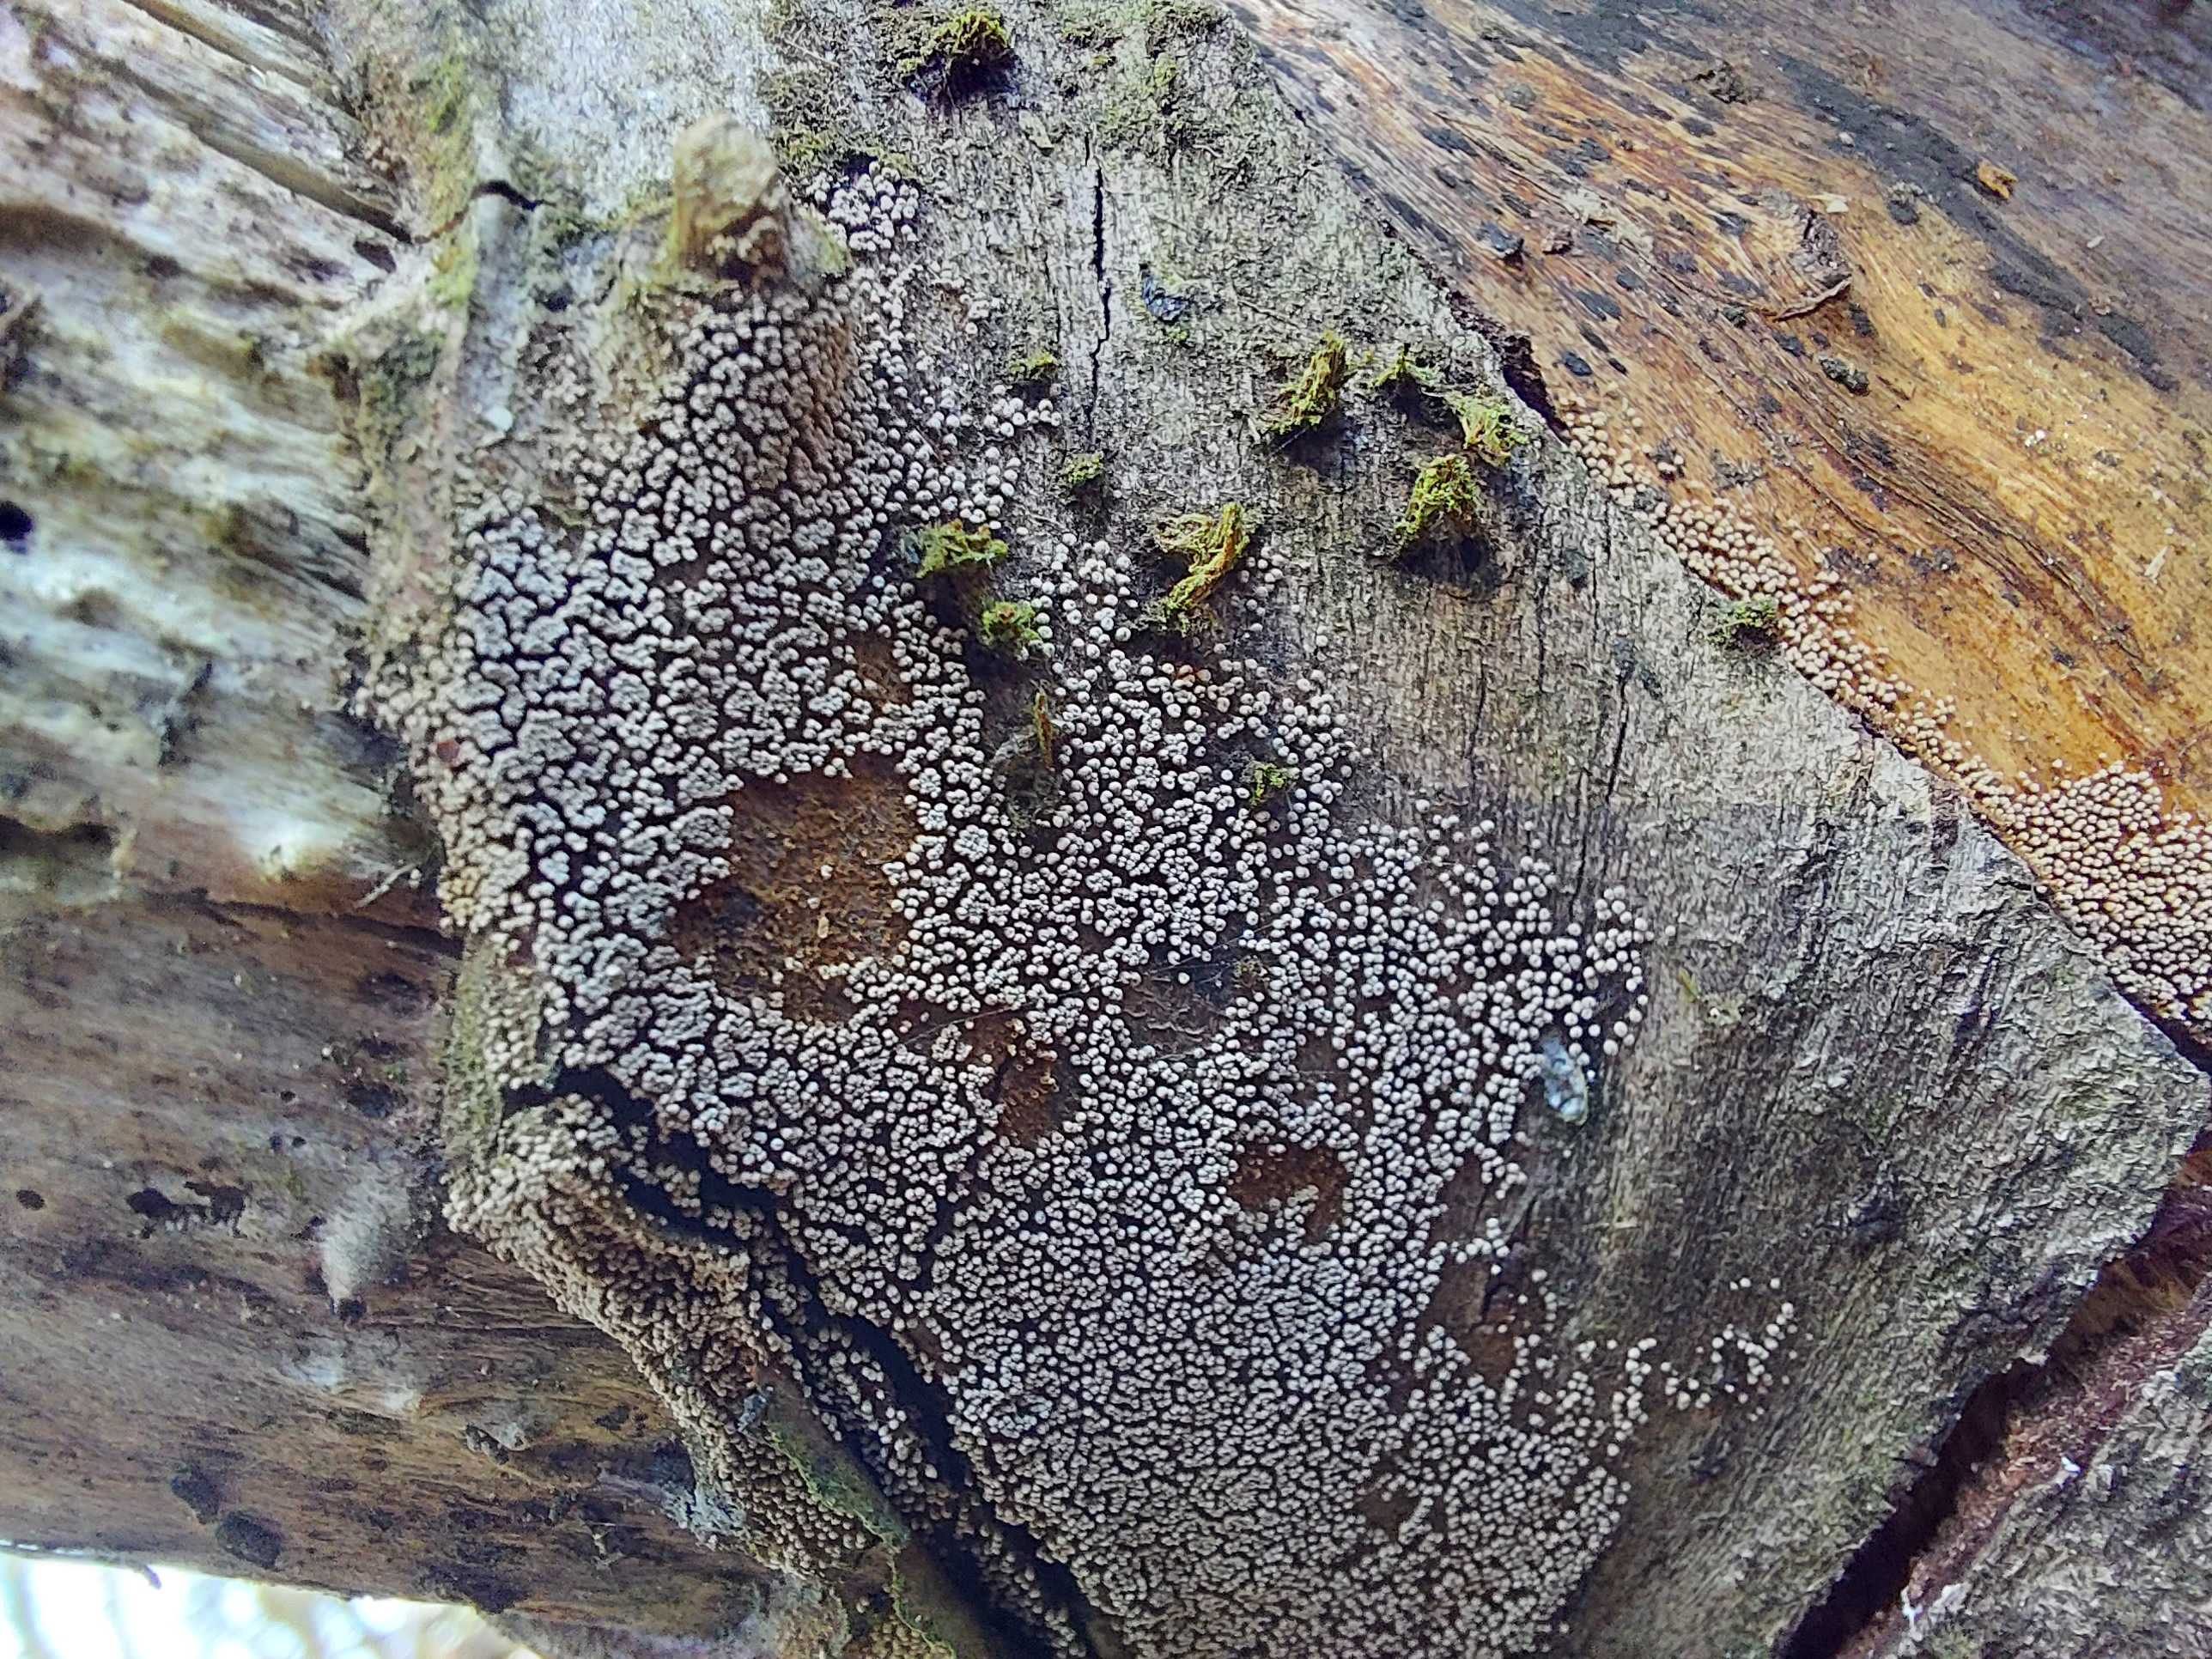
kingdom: Fungi
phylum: Basidiomycota
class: Agaricomycetes
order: Agaricales
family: Niaceae
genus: Merismodes
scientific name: Merismodes anomala
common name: almindelig læderskål
